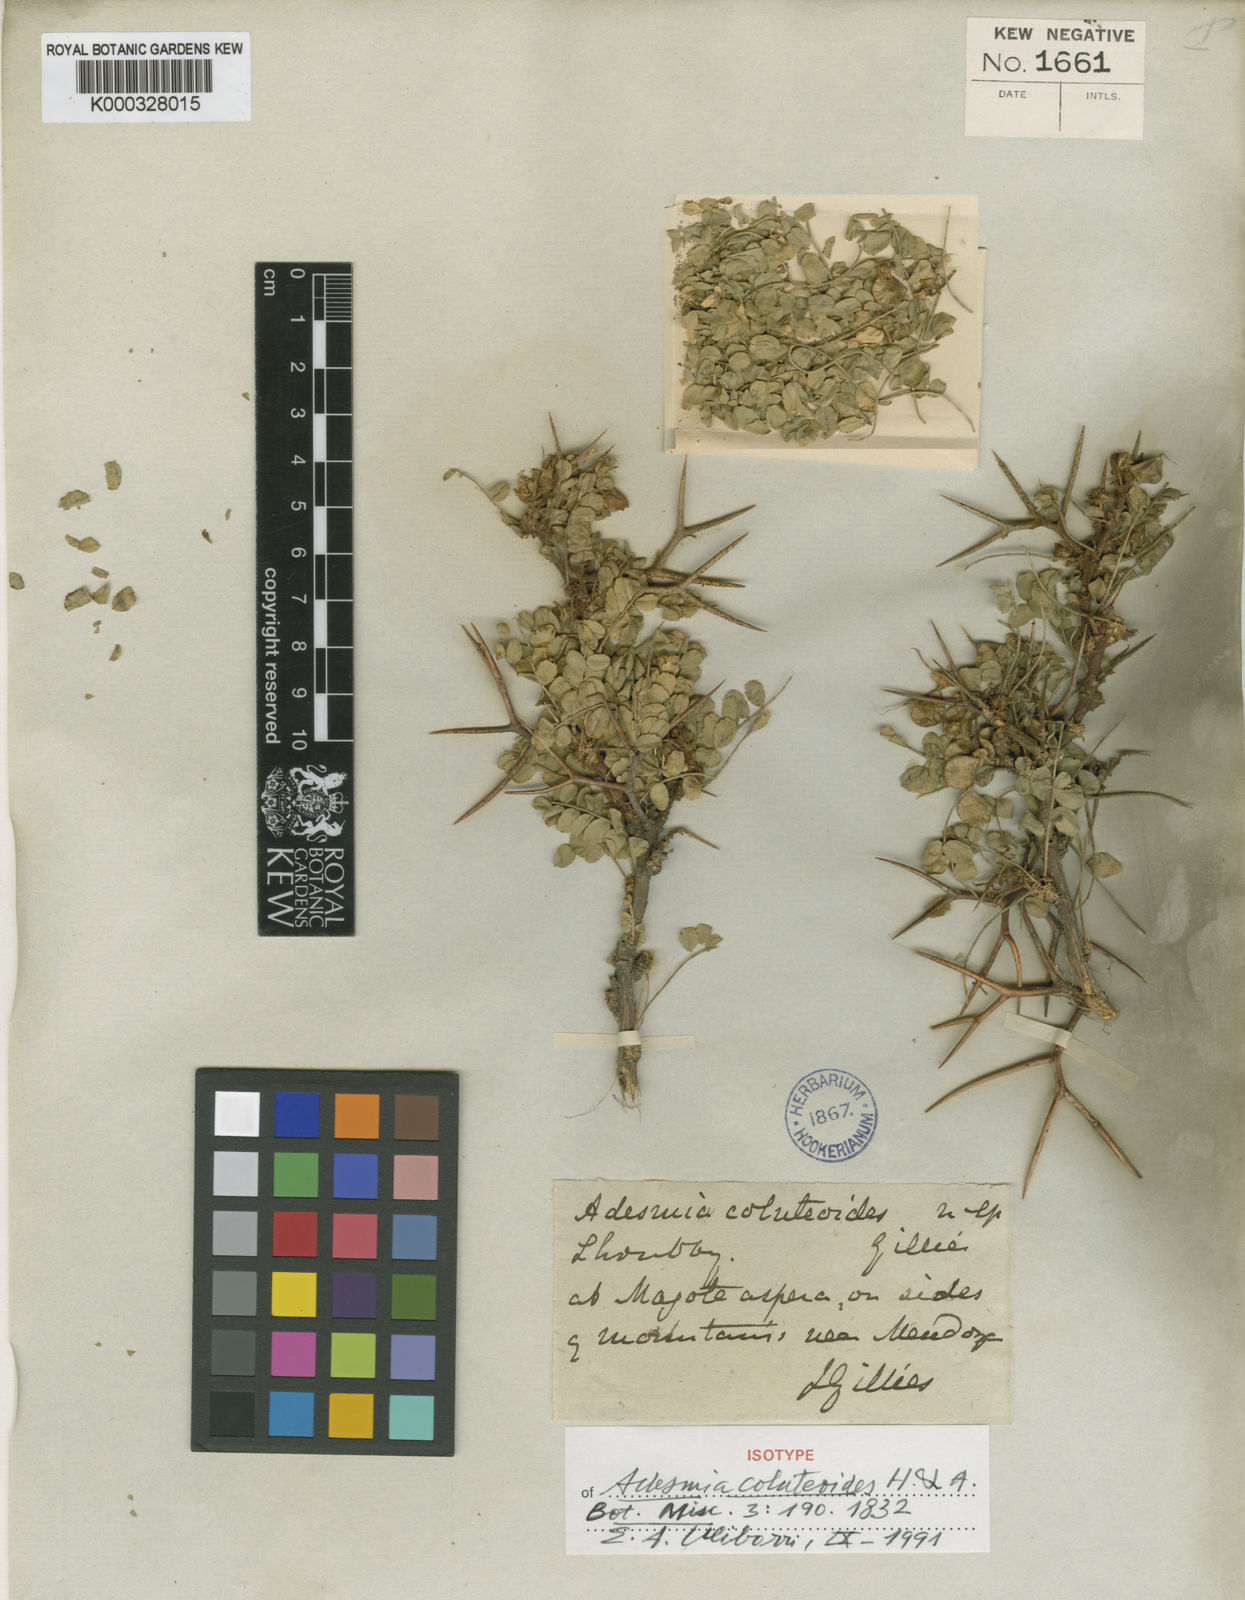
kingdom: Plantae
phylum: Tracheophyta
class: Magnoliopsida
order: Fabales
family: Fabaceae
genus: Adesmia
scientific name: Adesmia coluteoides
